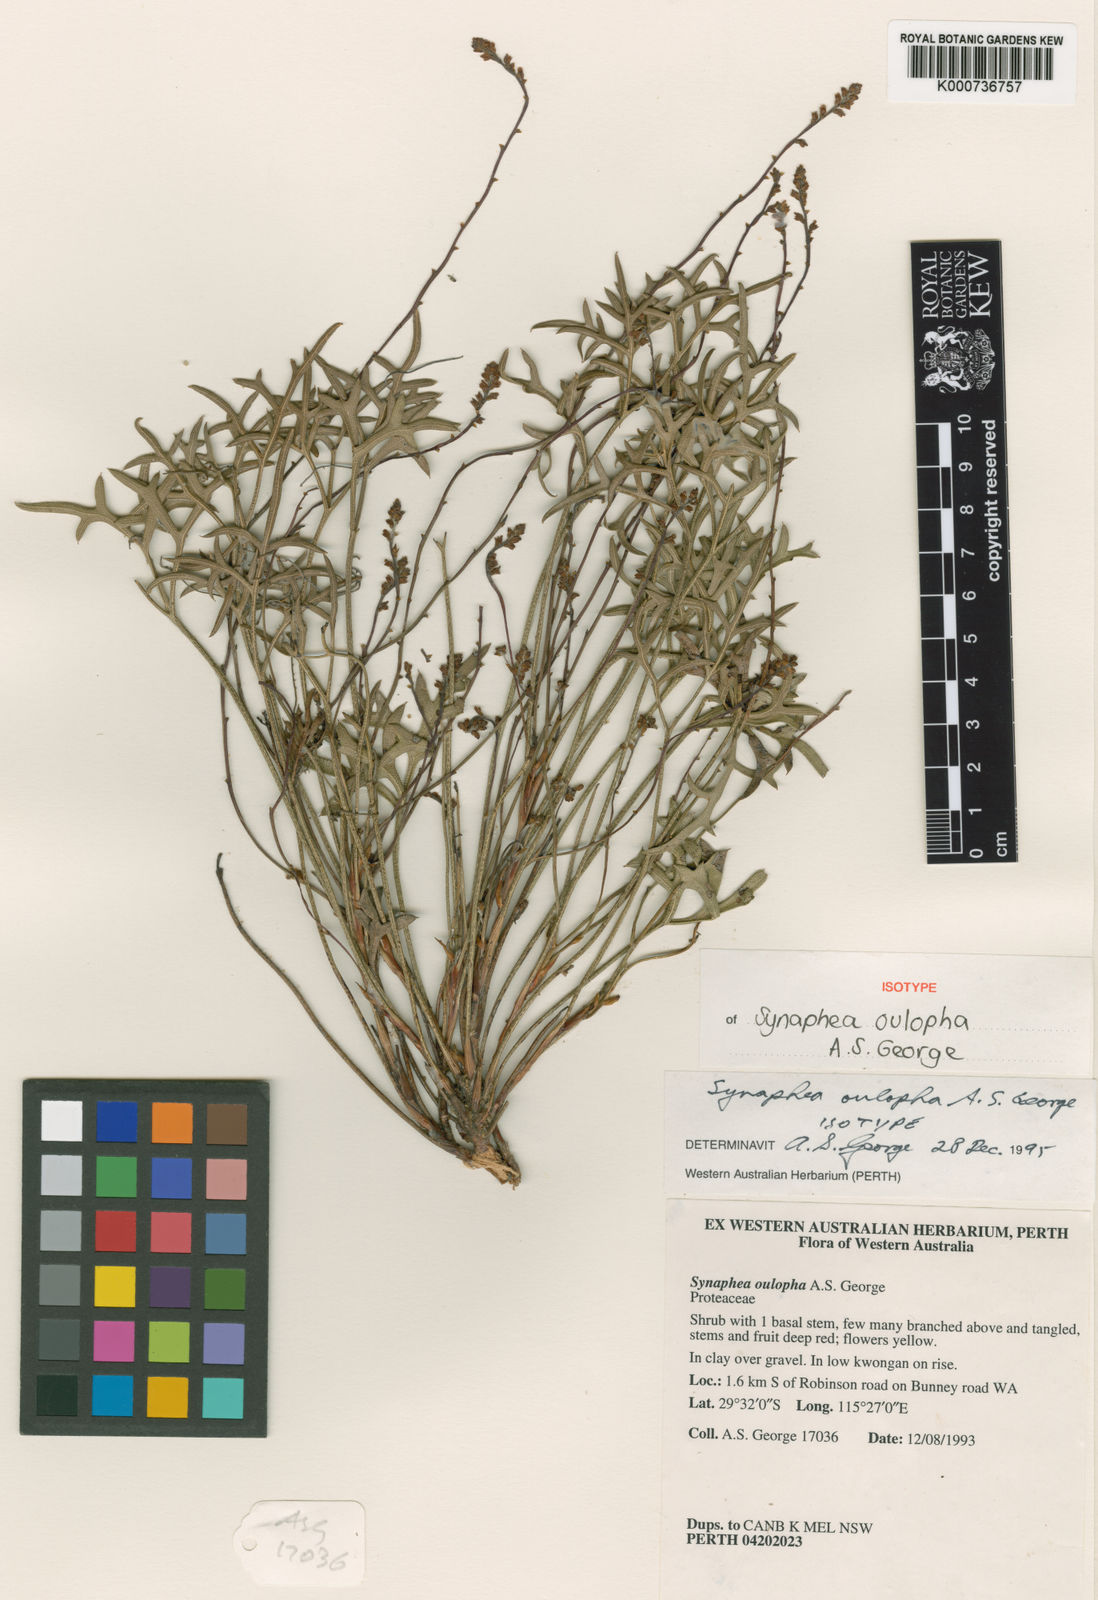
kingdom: Plantae
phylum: Tracheophyta
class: Magnoliopsida
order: Proteales
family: Proteaceae
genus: Synaphea
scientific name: Synaphea oulopha
